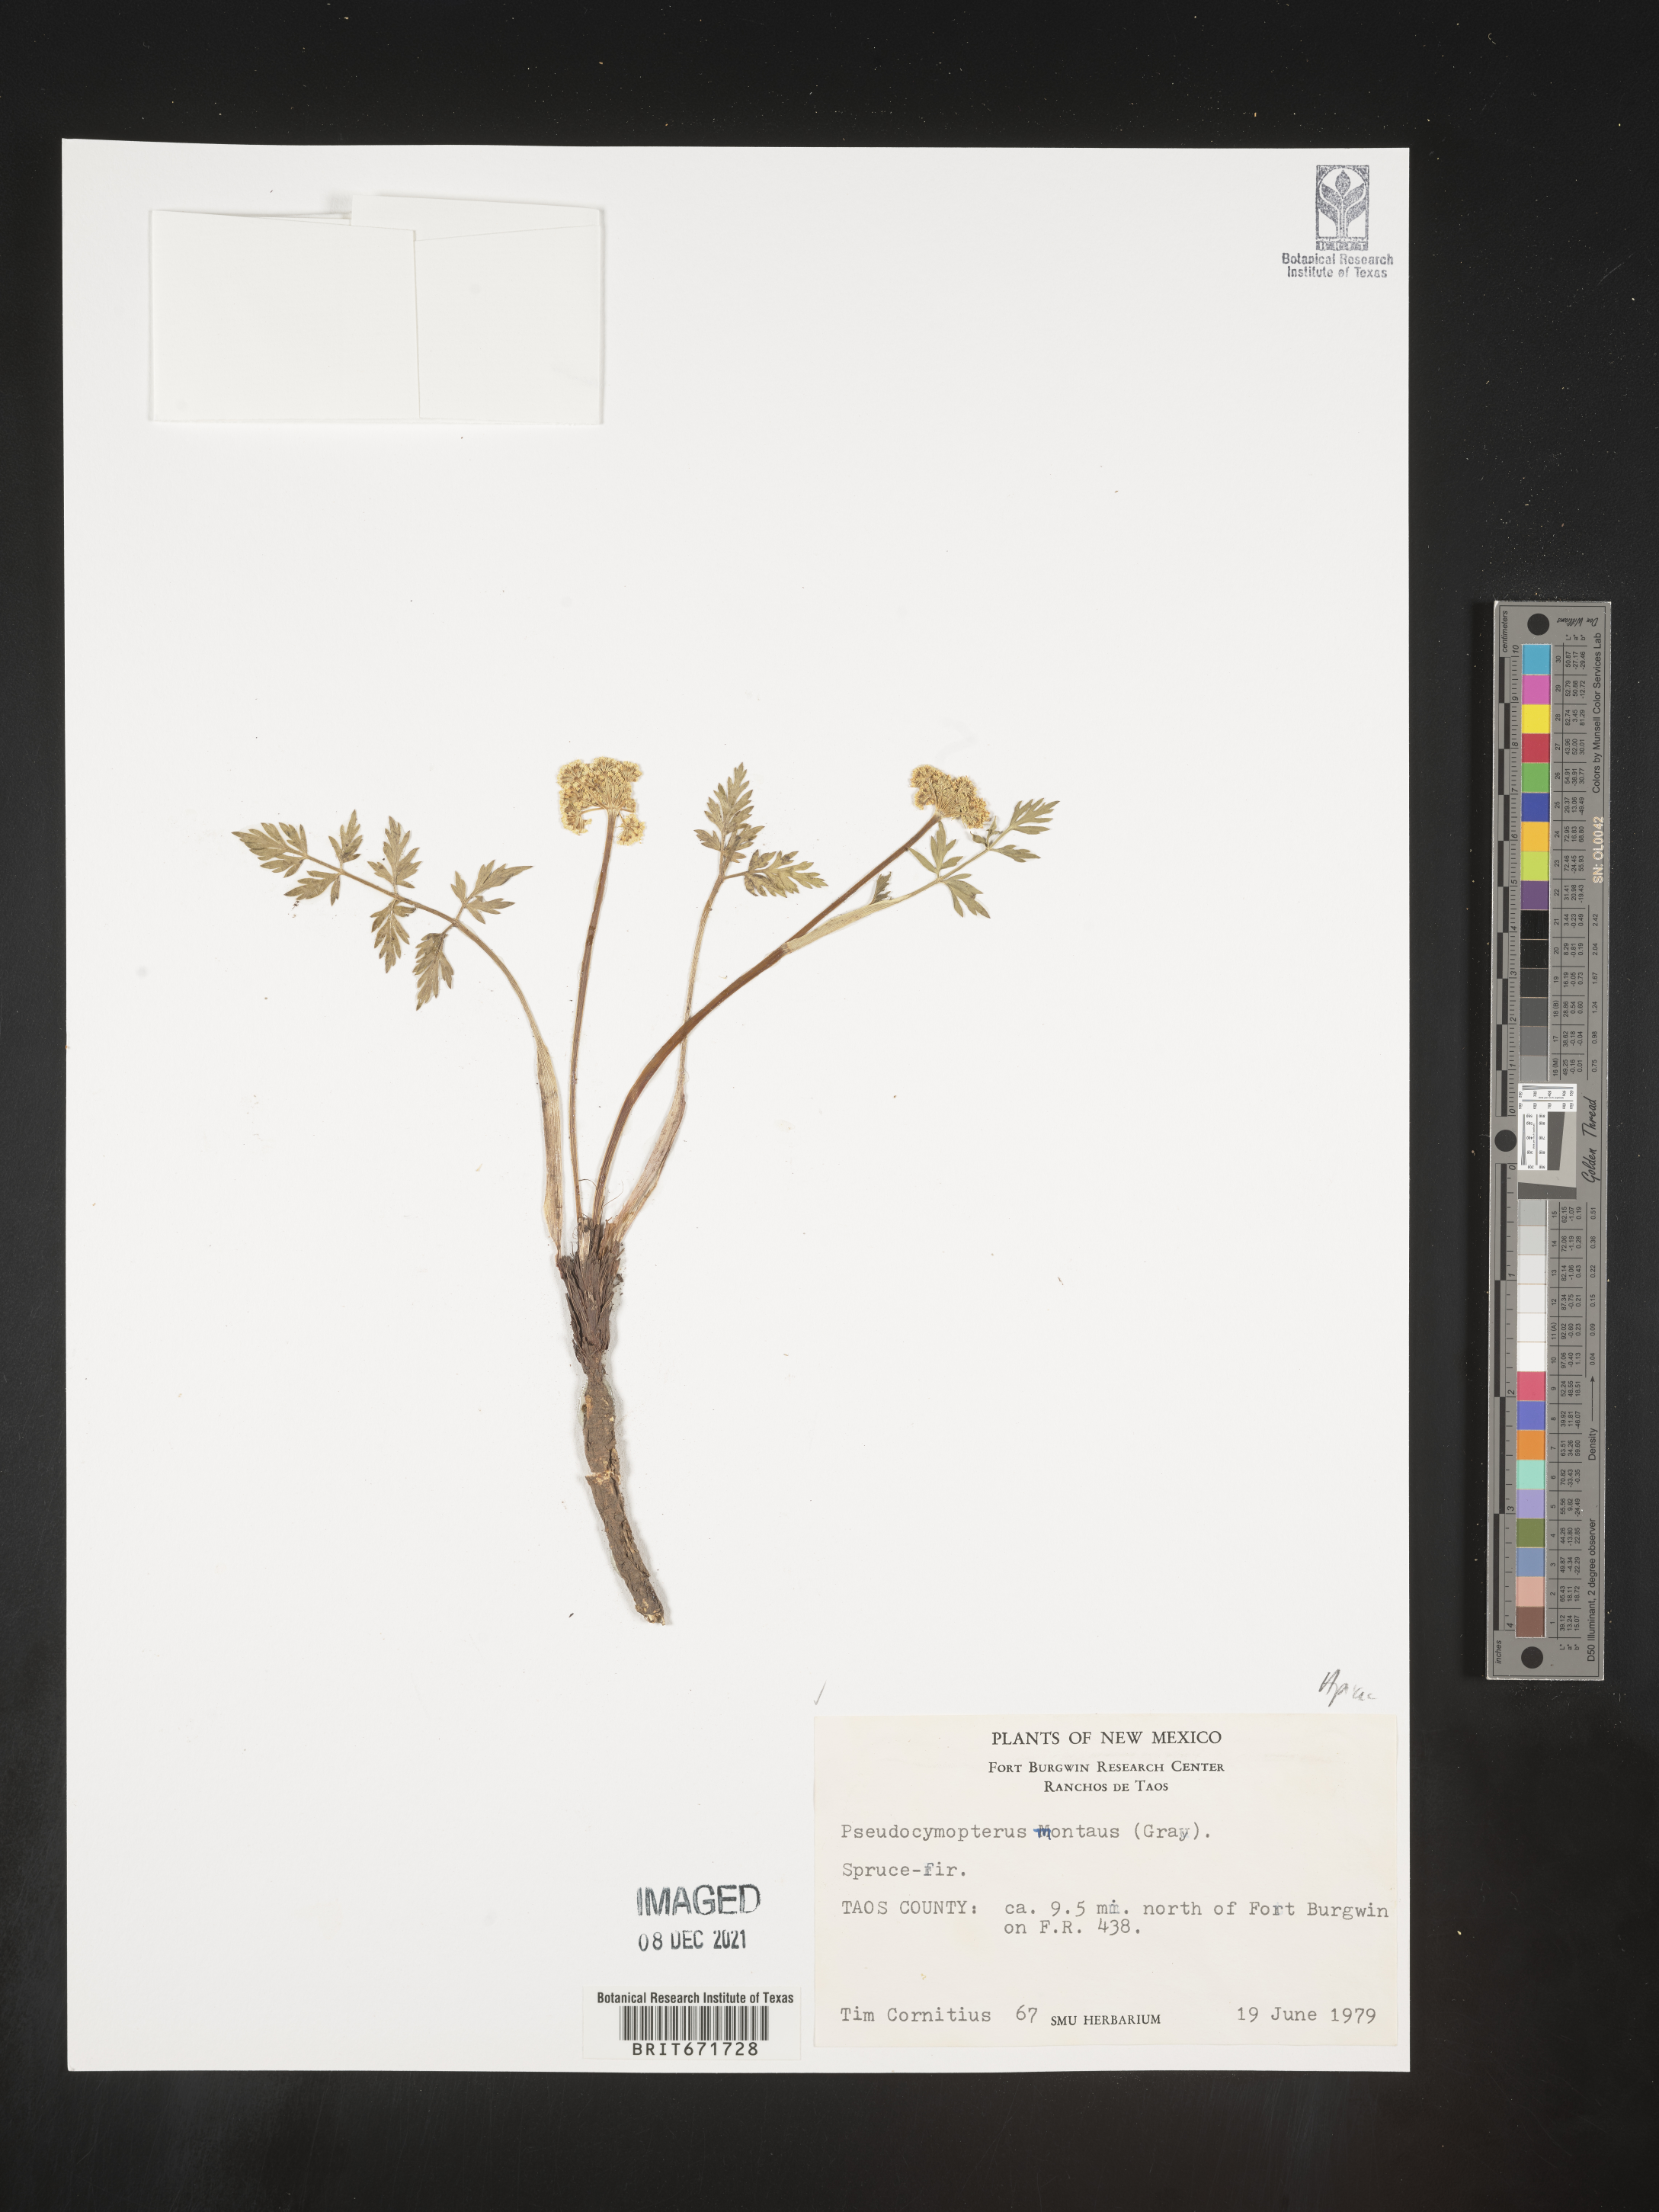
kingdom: Plantae
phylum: Tracheophyta
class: Magnoliopsida
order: Apiales
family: Apiaceae
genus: Cymopterus
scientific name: Cymopterus lemmonii
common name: Lemmon's spring-parsley
